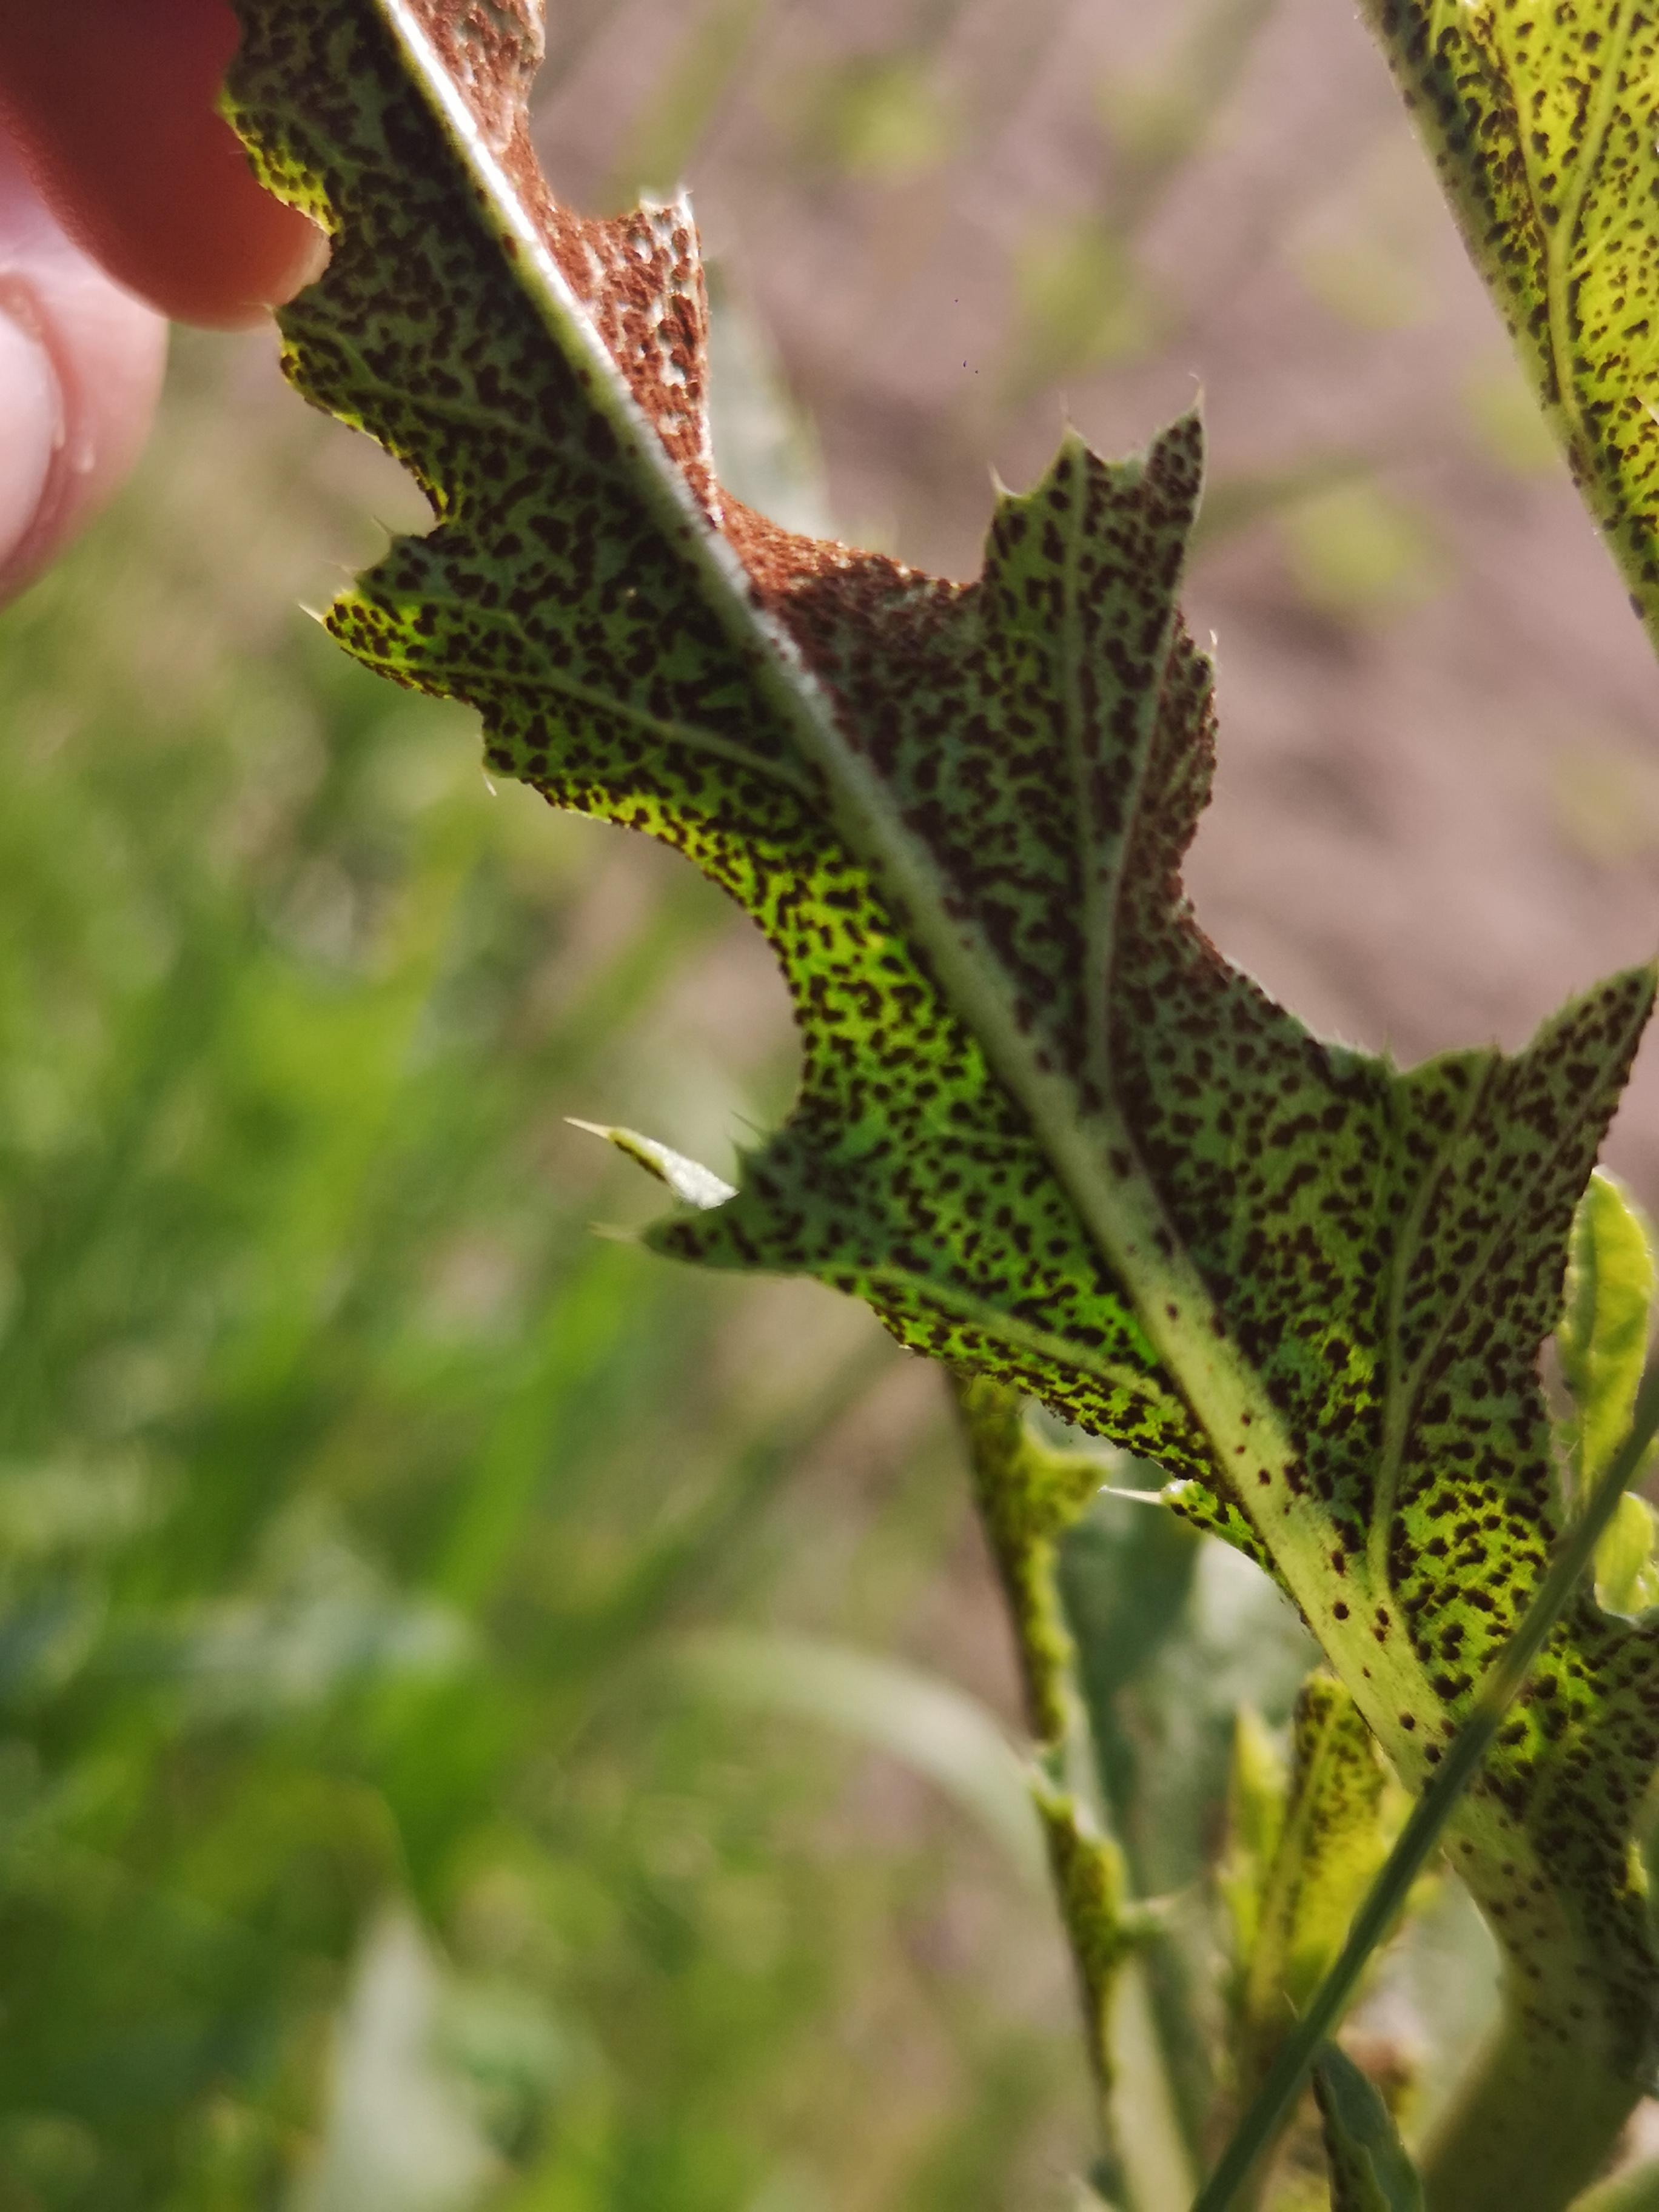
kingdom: Fungi
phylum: Basidiomycota
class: Pucciniomycetes
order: Pucciniales
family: Pucciniaceae
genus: Puccinia
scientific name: Puccinia suaveolens
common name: tidsel-tvecellerust
